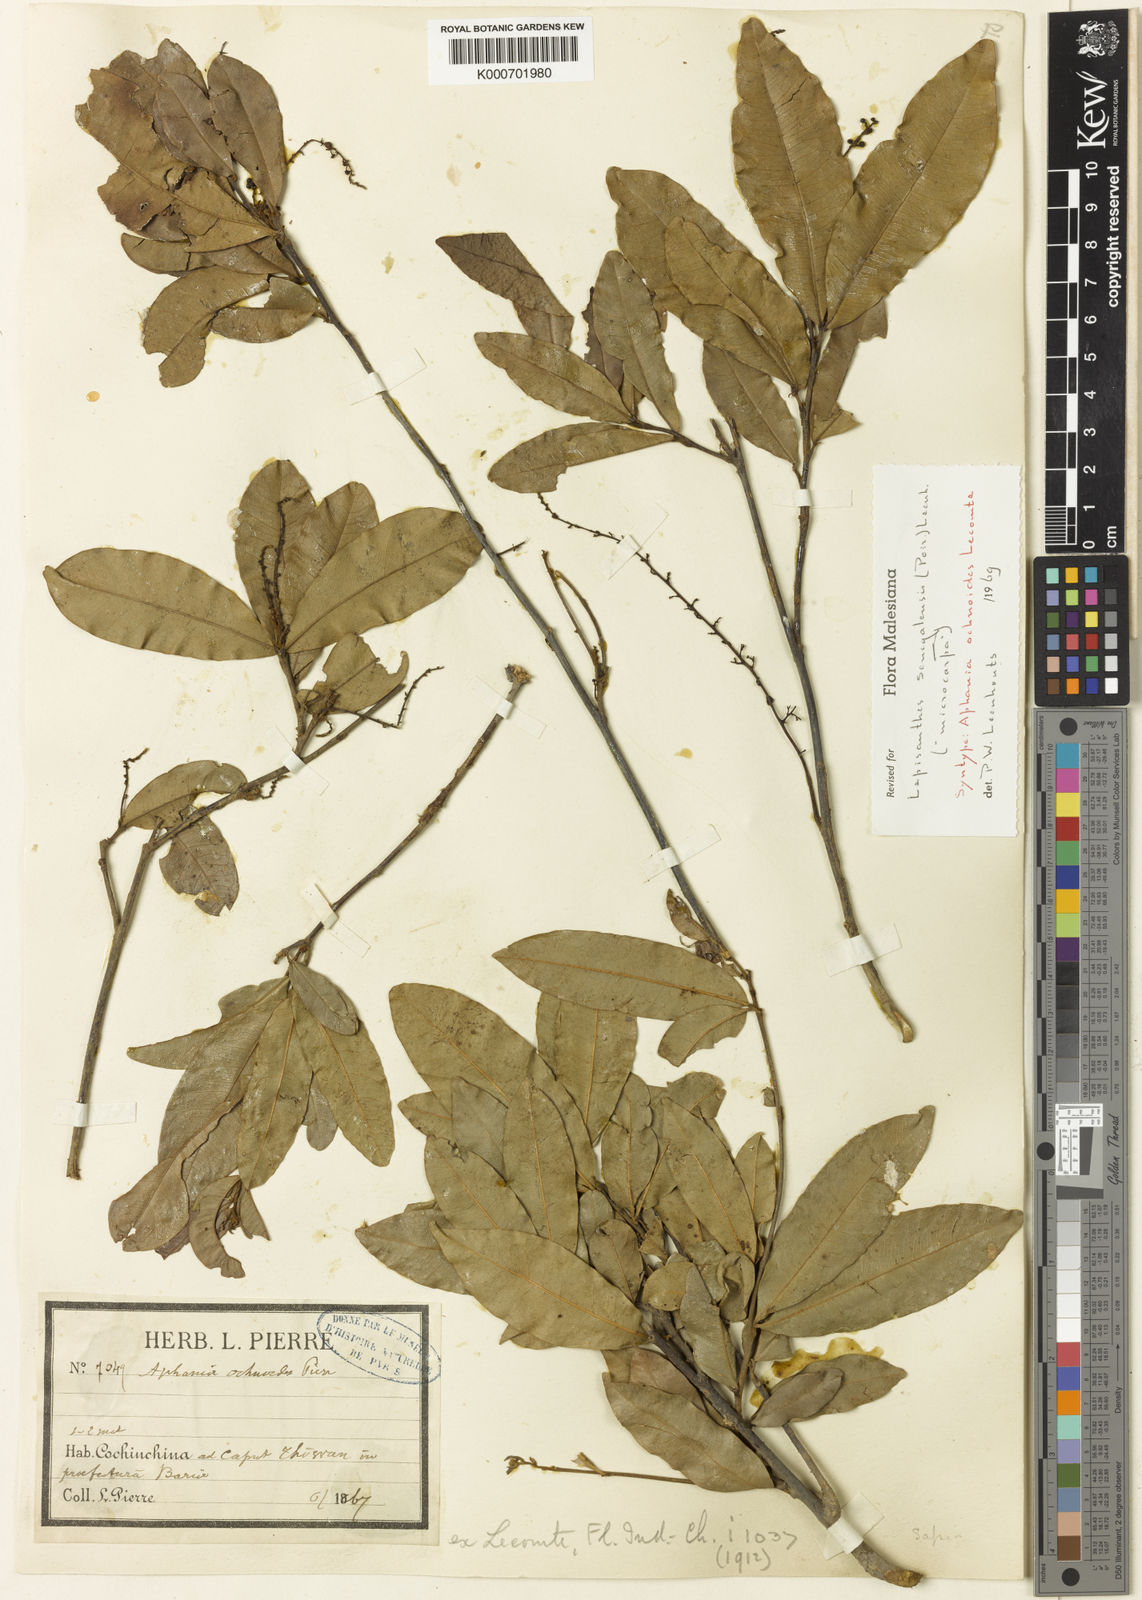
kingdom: Plantae
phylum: Tracheophyta
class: Magnoliopsida
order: Sapindales
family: Sapindaceae
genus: Lepisanthes
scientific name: Lepisanthes senegalensis
